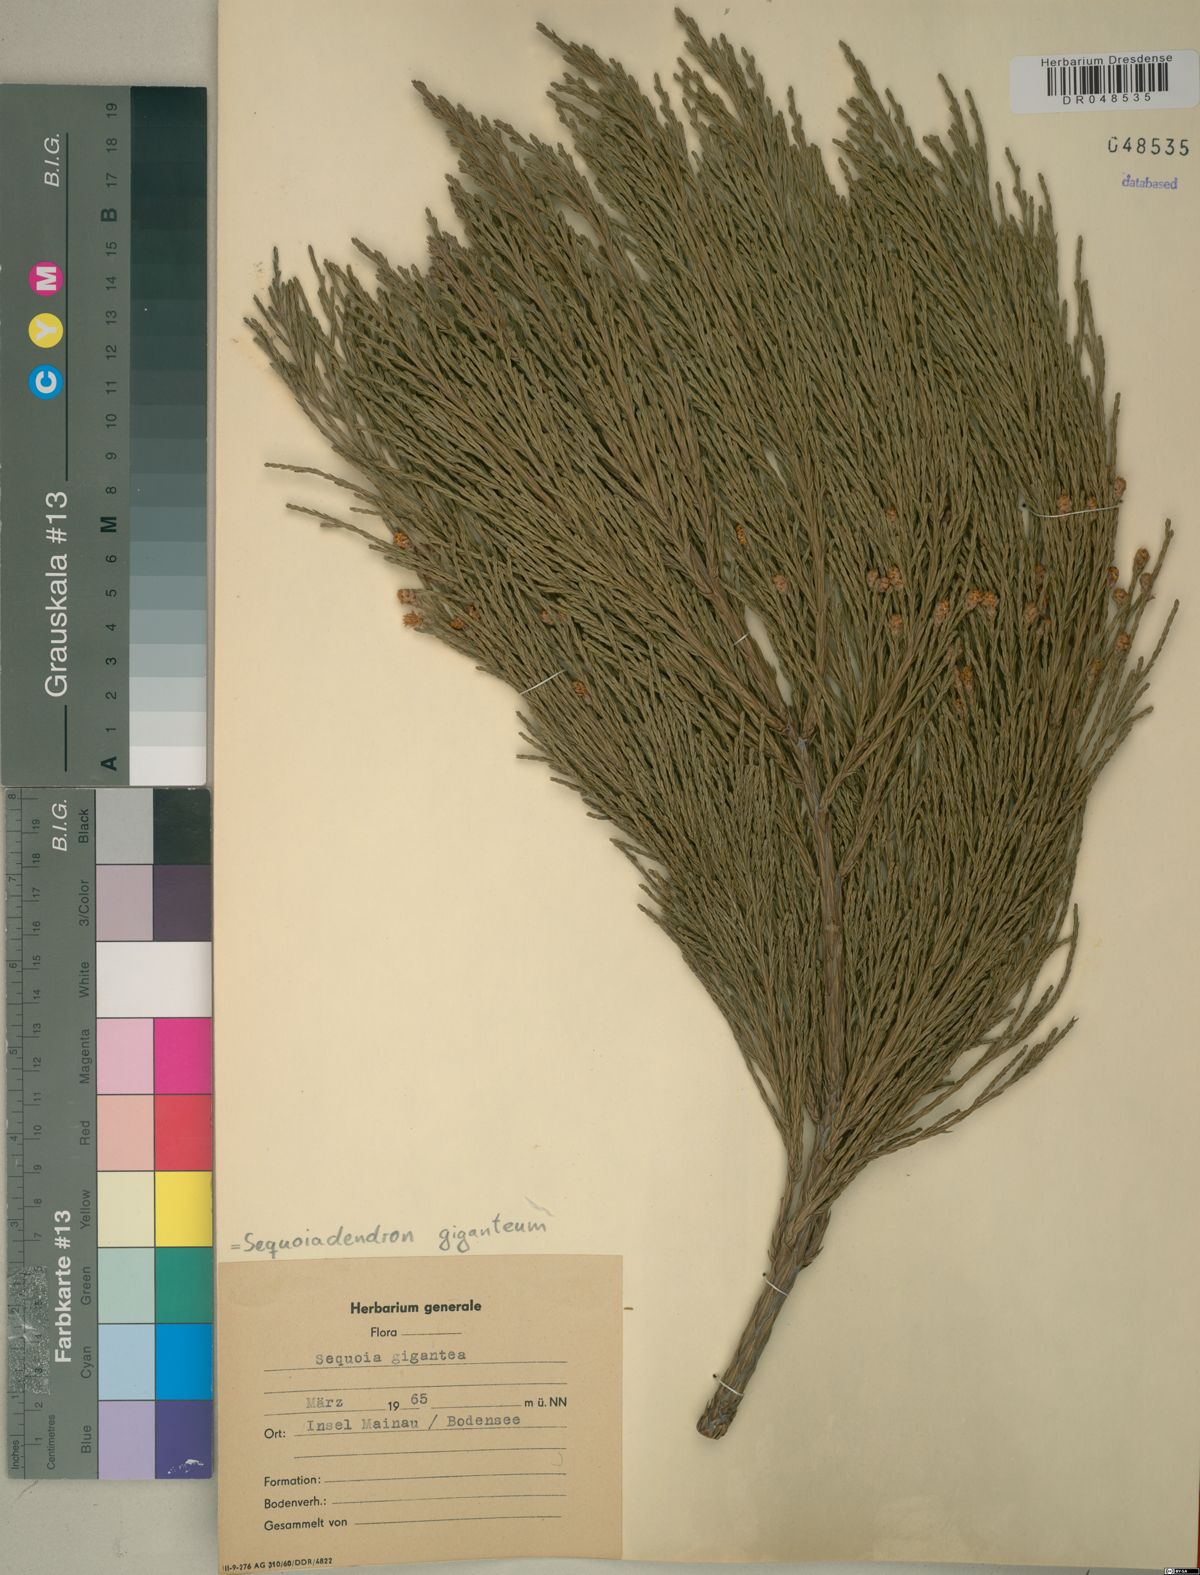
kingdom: Plantae
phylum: Tracheophyta
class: Pinopsida
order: Pinales
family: Cupressaceae
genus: Sequoiadendron
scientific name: Sequoiadendron giganteum
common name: Wellingtonia
